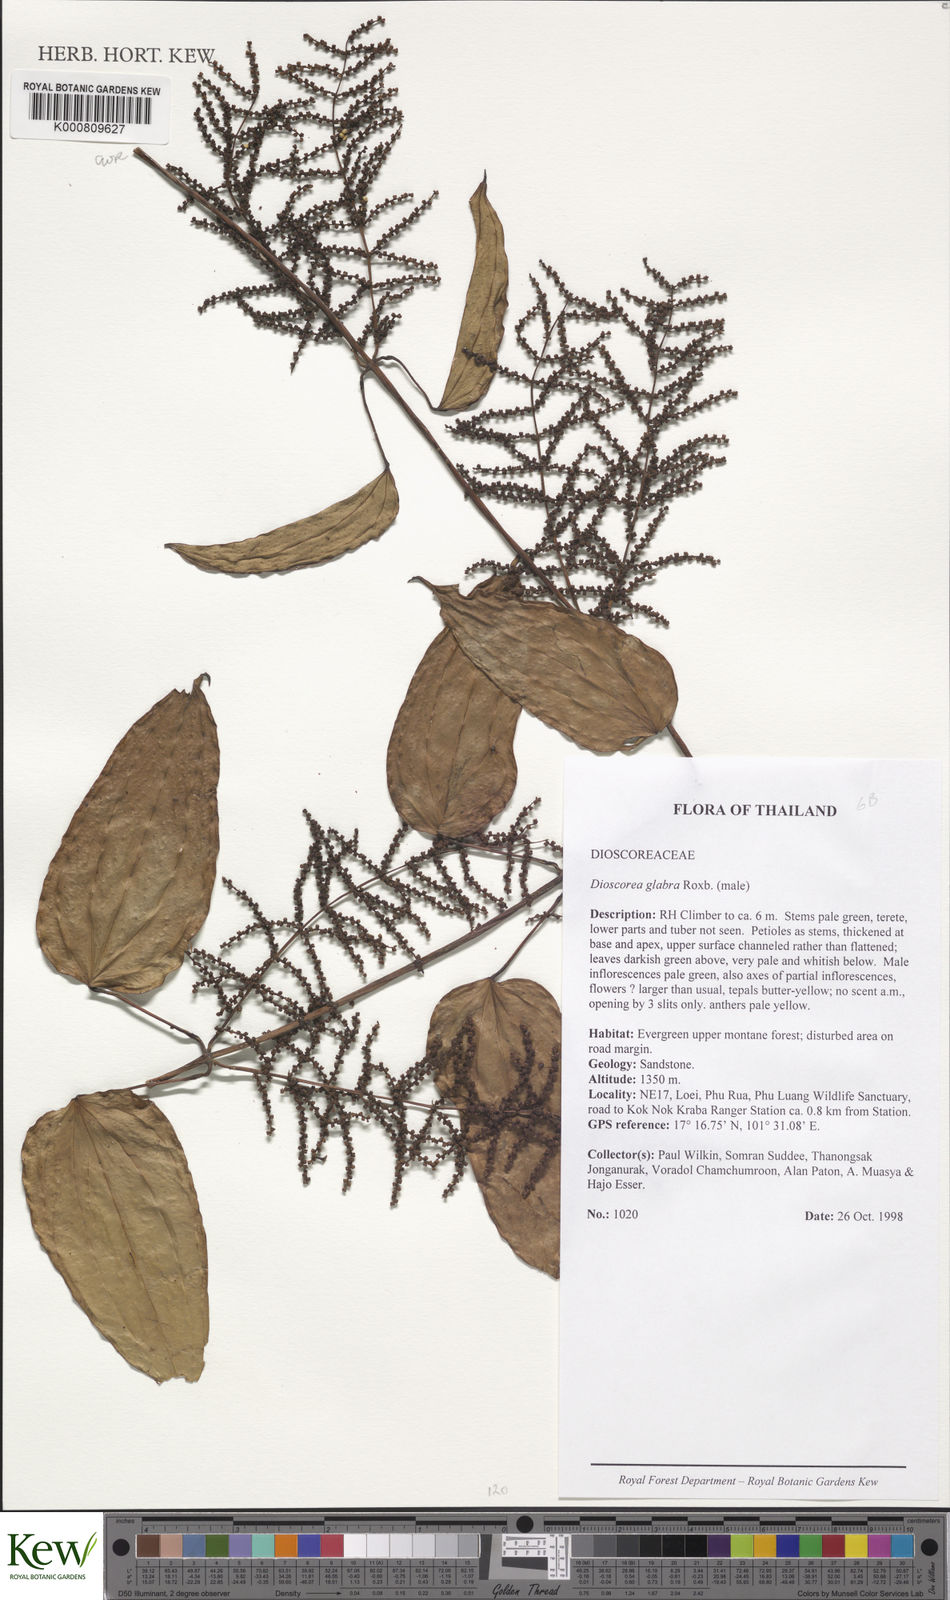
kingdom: Plantae
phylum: Tracheophyta
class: Liliopsida
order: Dioscoreales
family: Dioscoreaceae
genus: Dioscorea
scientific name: Dioscorea glabra
